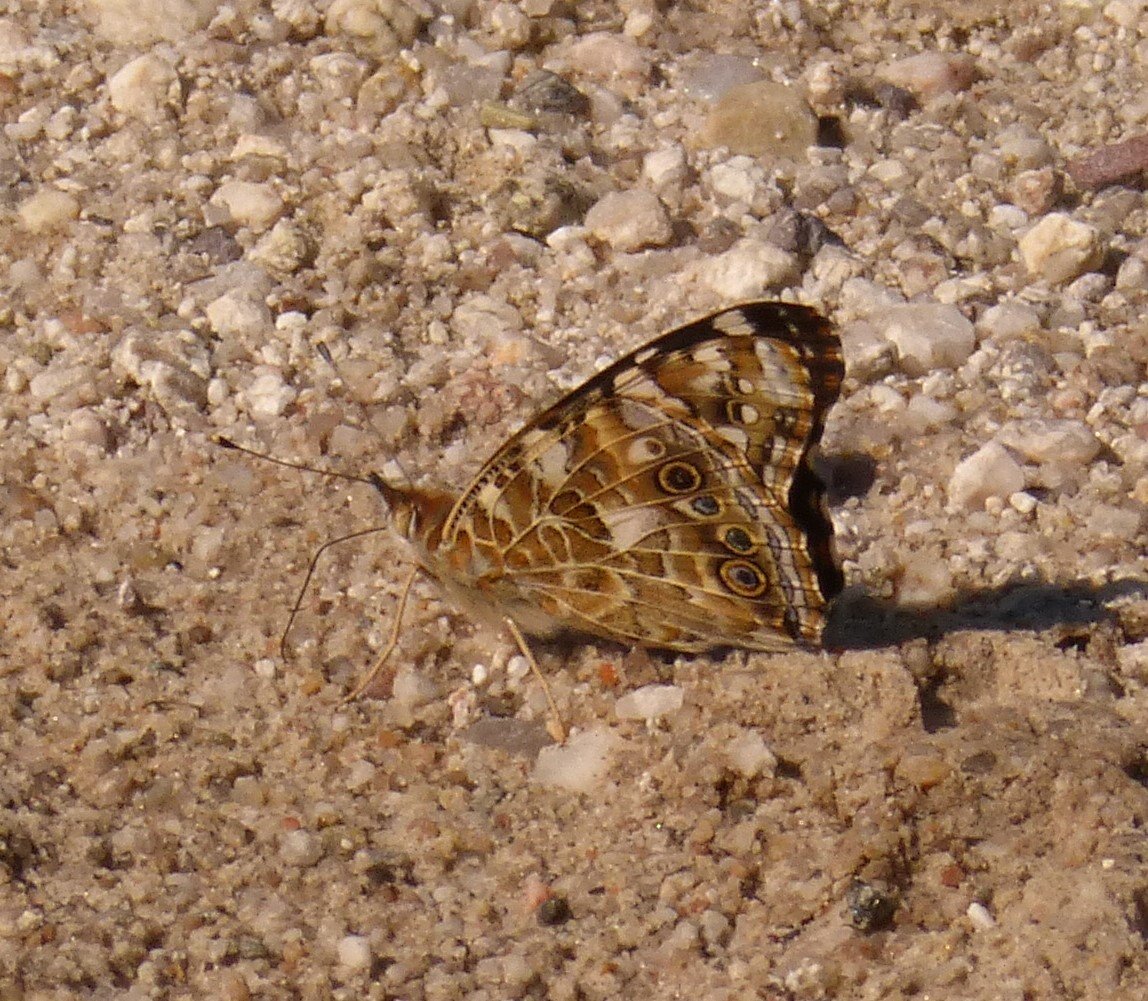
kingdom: Animalia
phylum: Arthropoda
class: Insecta
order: Lepidoptera
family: Nymphalidae
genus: Vanessa
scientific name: Vanessa cardui
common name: Painted Lady
